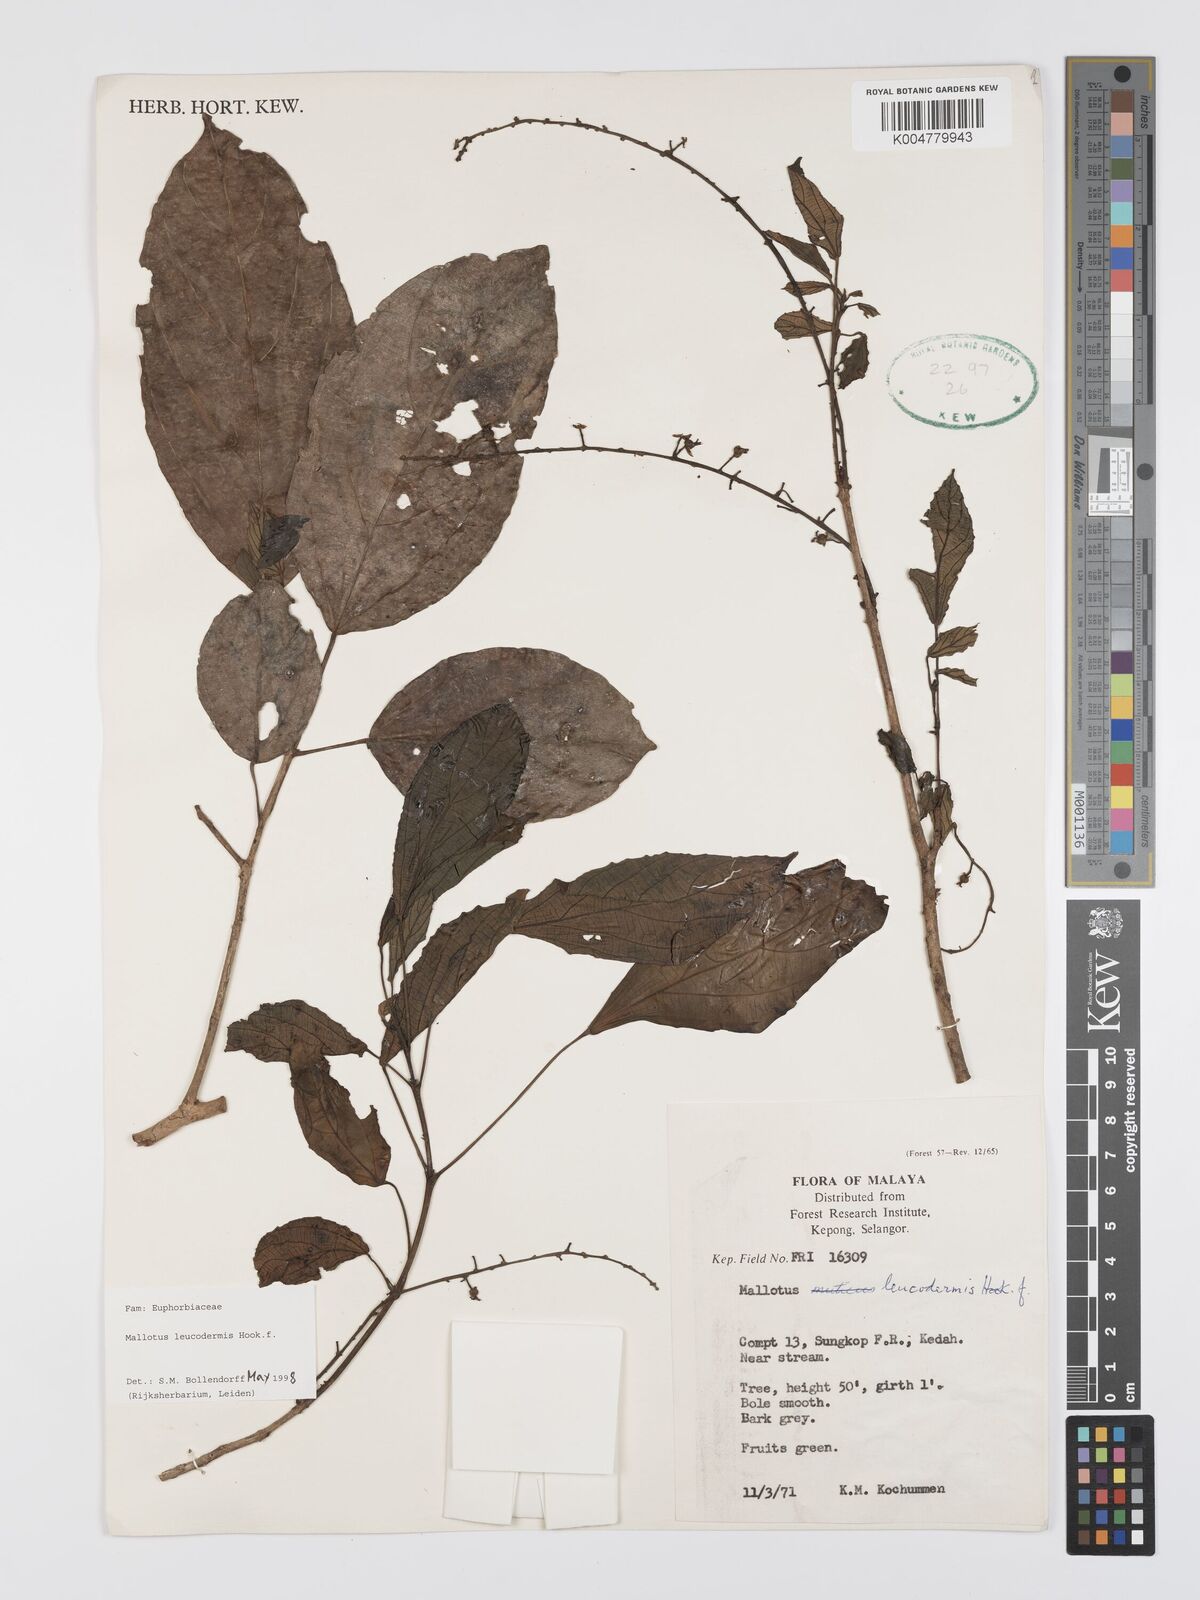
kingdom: Plantae
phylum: Tracheophyta
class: Magnoliopsida
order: Malpighiales
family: Euphorbiaceae
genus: Mallotus
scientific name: Mallotus leucodermis
